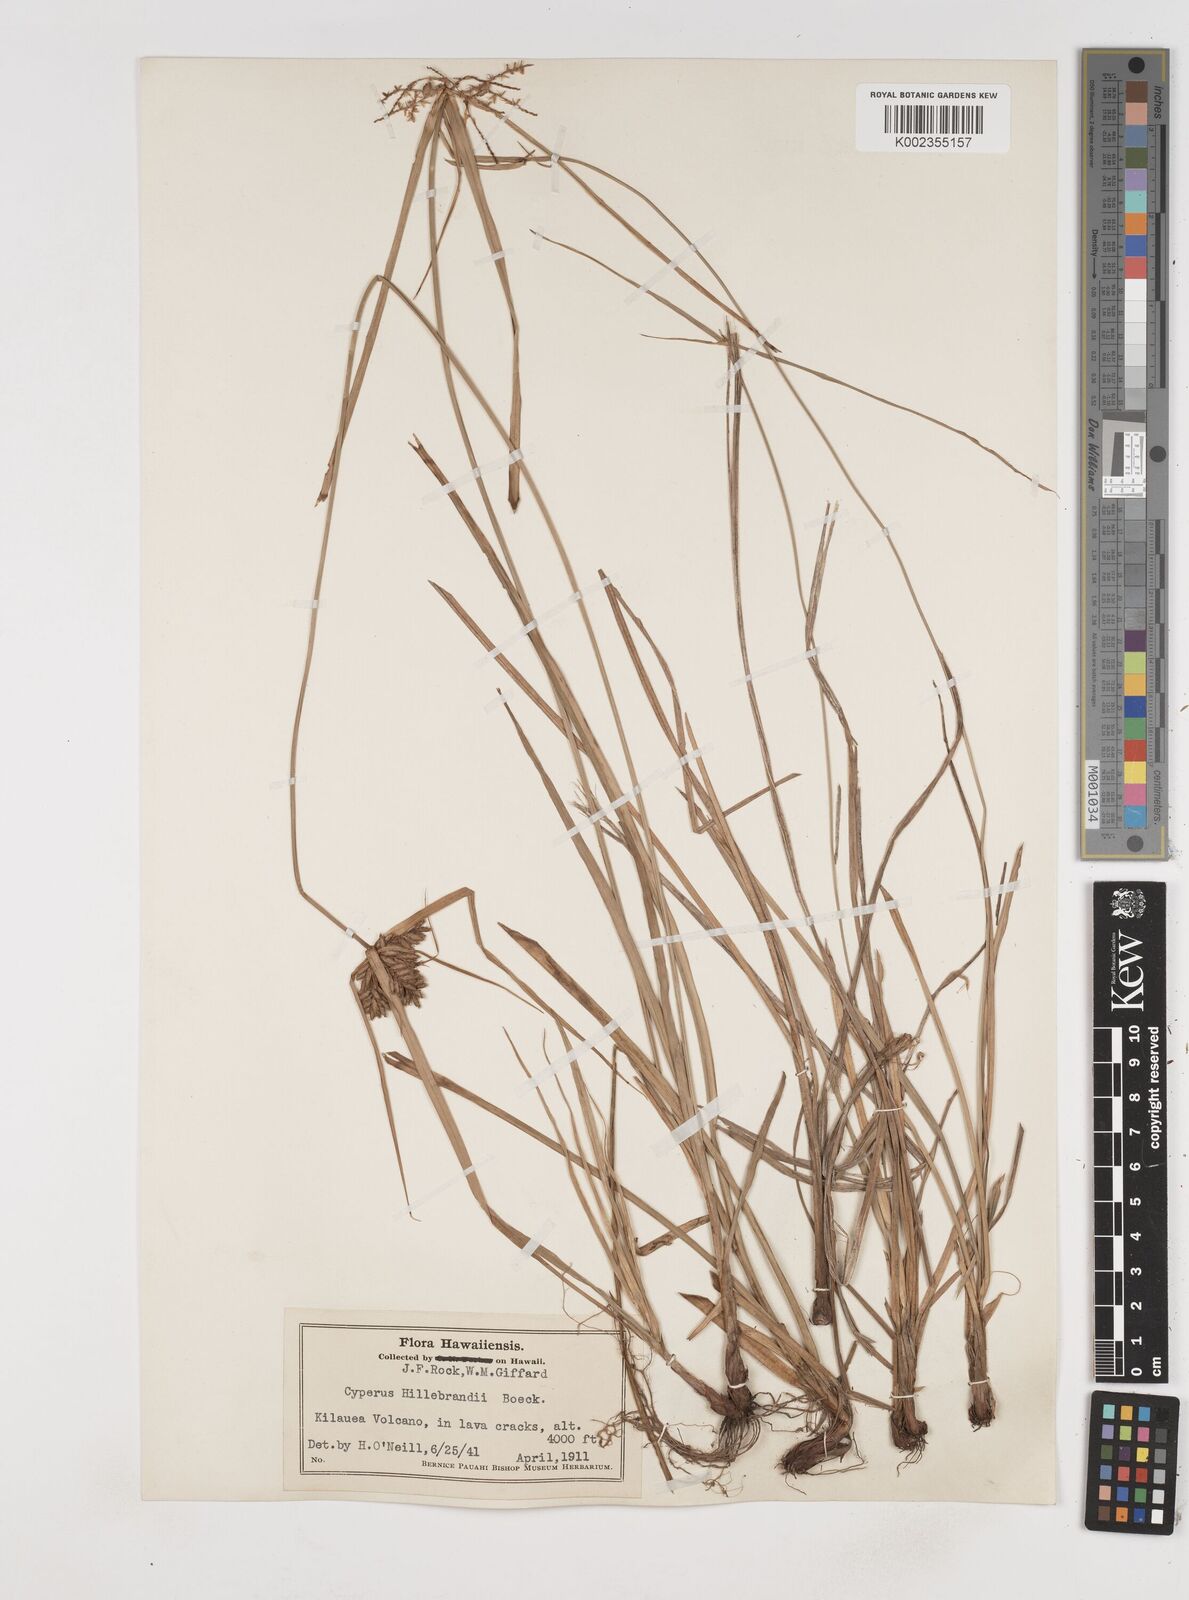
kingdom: Plantae
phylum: Tracheophyta
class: Liliopsida
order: Poales
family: Cyperaceae
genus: Cyperus
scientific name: Cyperus hillebrandii
